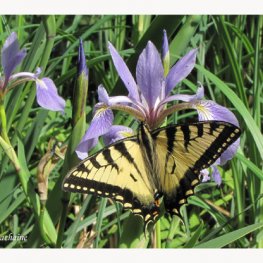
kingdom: Animalia
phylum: Arthropoda
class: Insecta
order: Lepidoptera
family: Papilionidae
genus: Pterourus
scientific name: Pterourus canadensis
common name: Canadian Tiger Swallowtail
